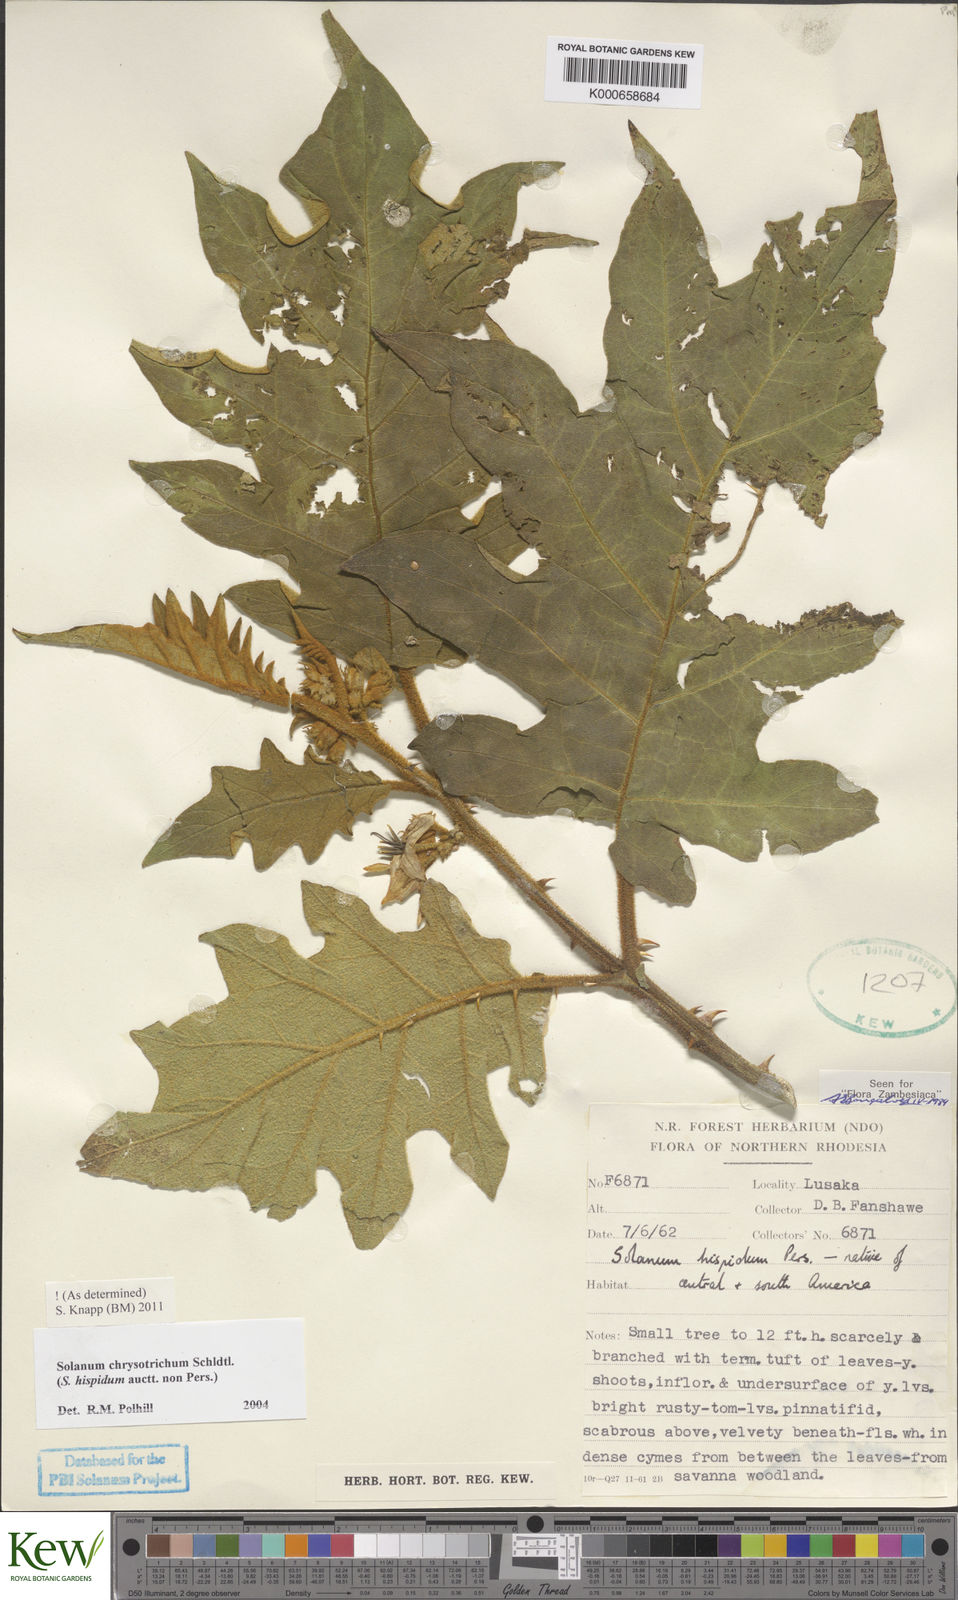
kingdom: Plantae
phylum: Tracheophyta
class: Magnoliopsida
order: Solanales
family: Solanaceae
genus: Solanum
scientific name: Solanum chrysotrichum
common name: Nightshade
